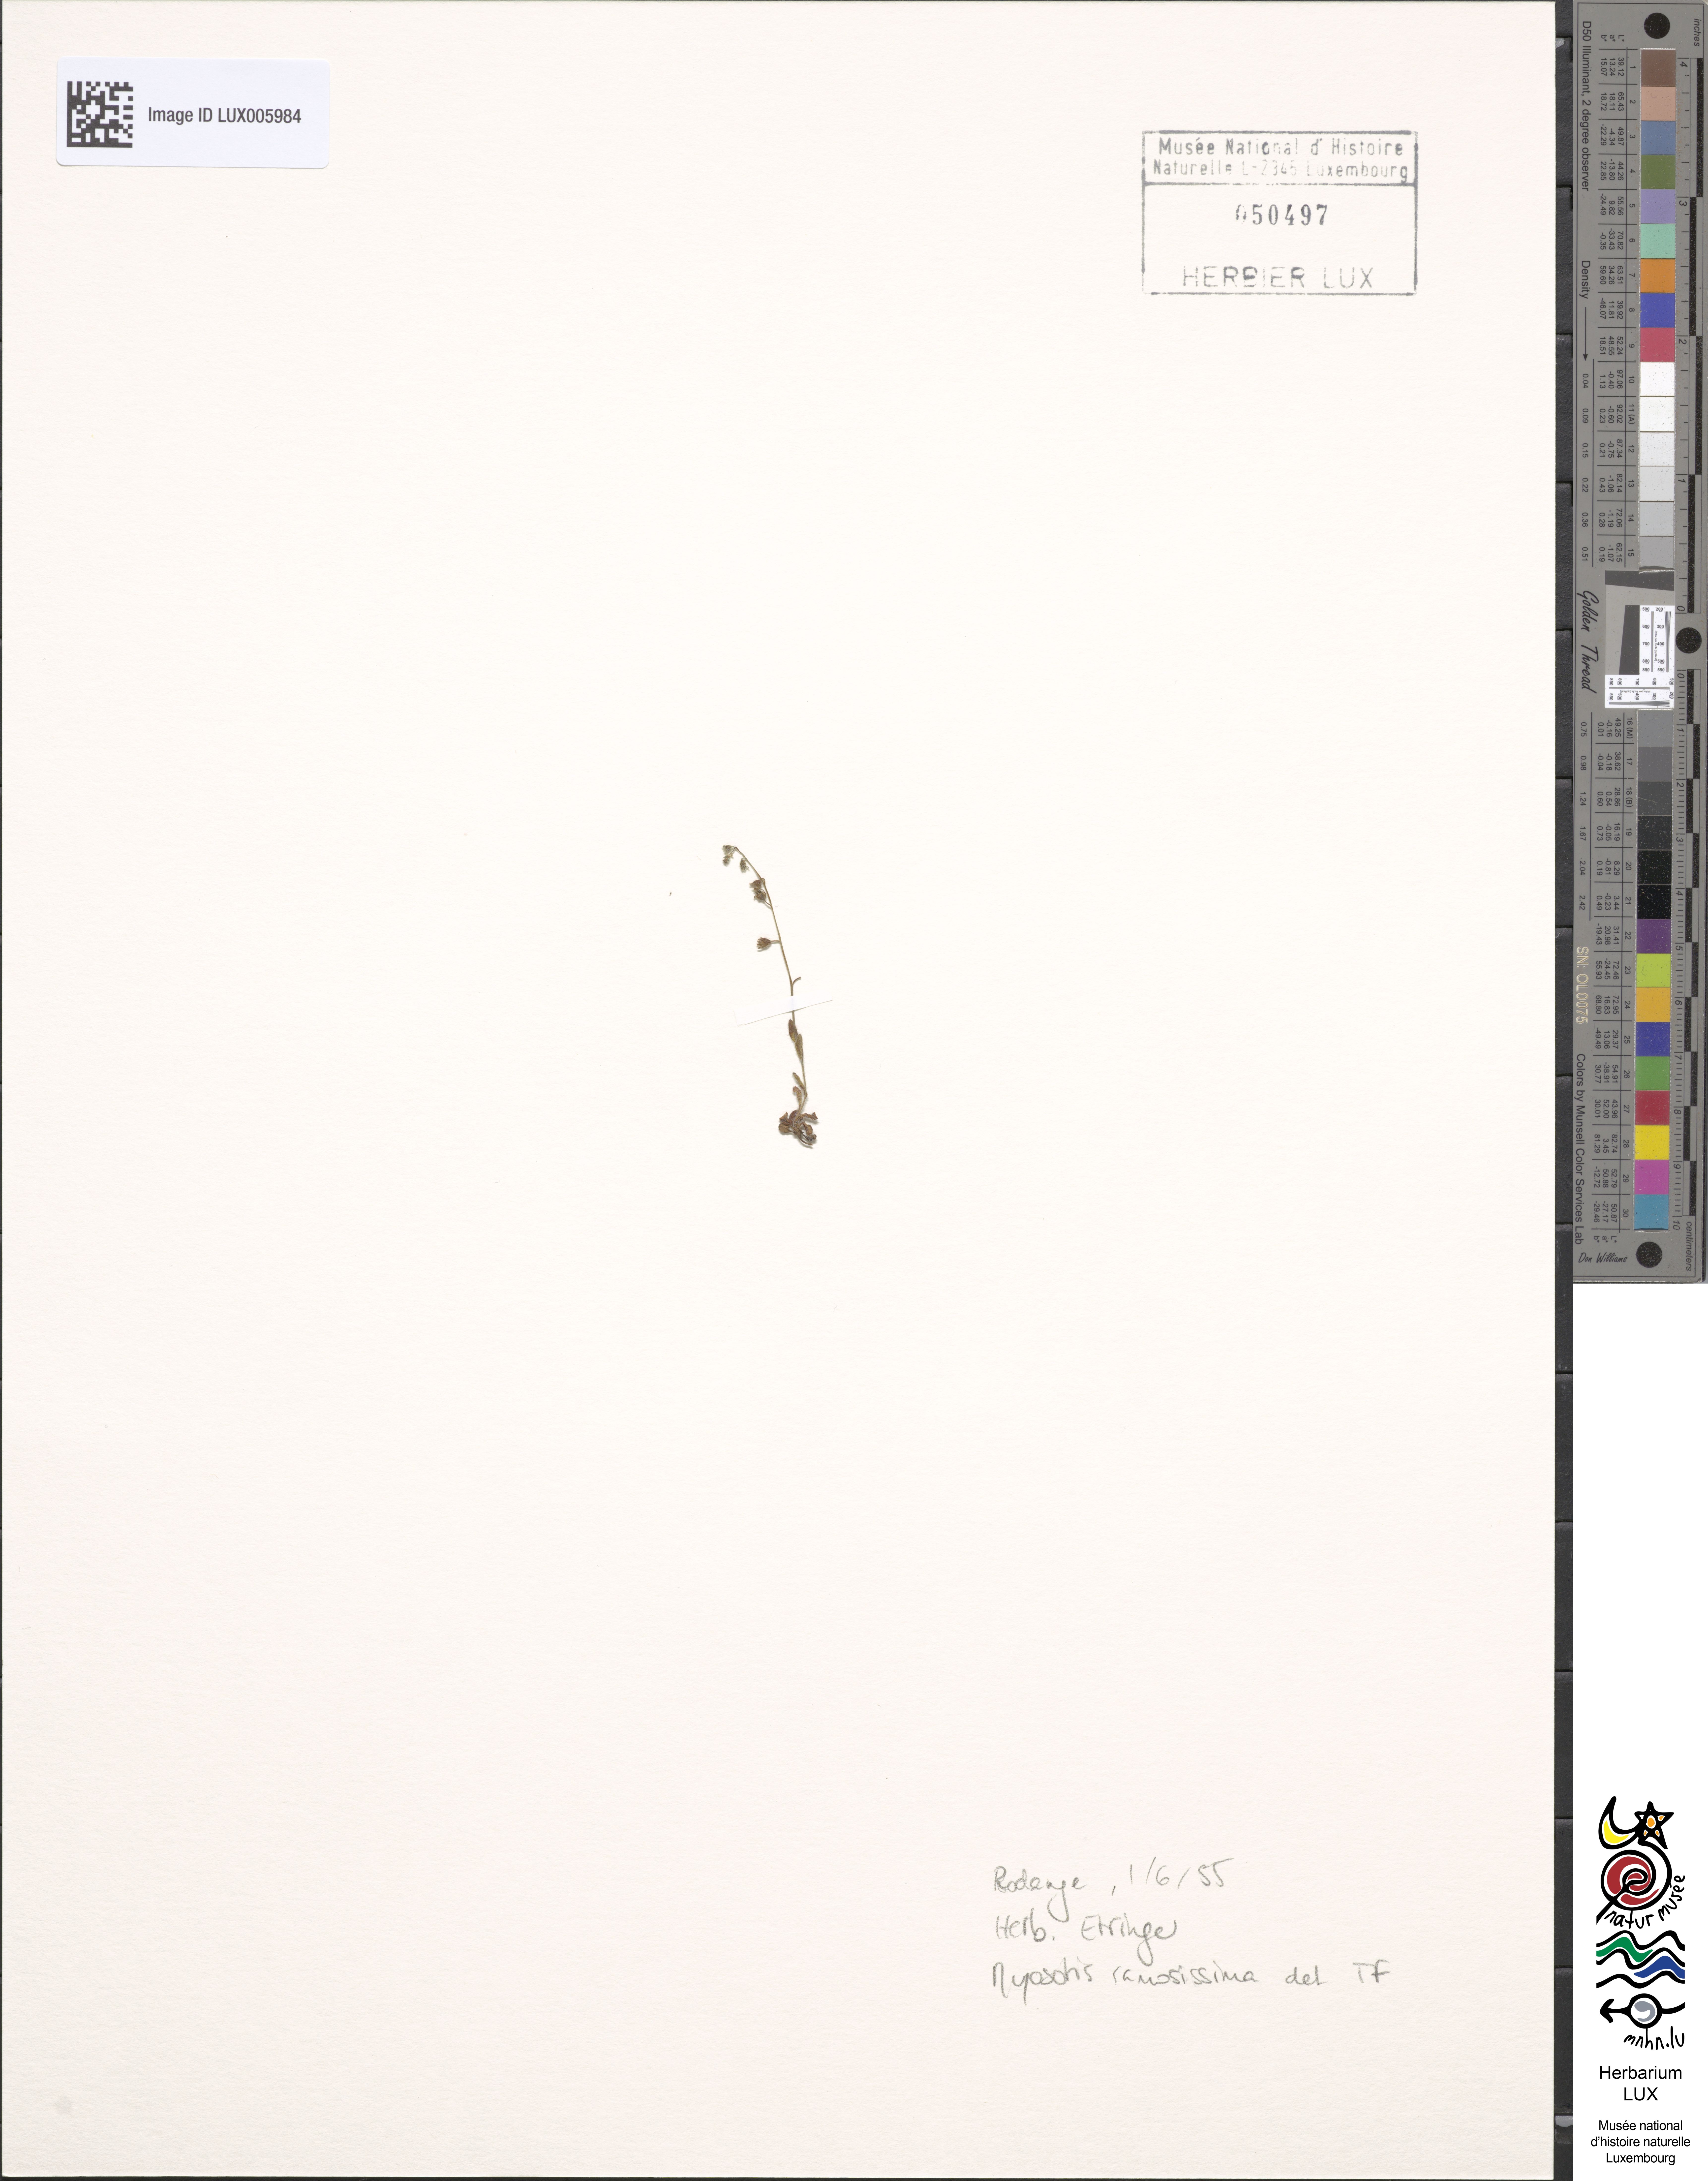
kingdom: Plantae
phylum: Tracheophyta
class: Magnoliopsida
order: Boraginales
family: Boraginaceae
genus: Myosotis
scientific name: Myosotis ramosissima
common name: Early forget-me-not
